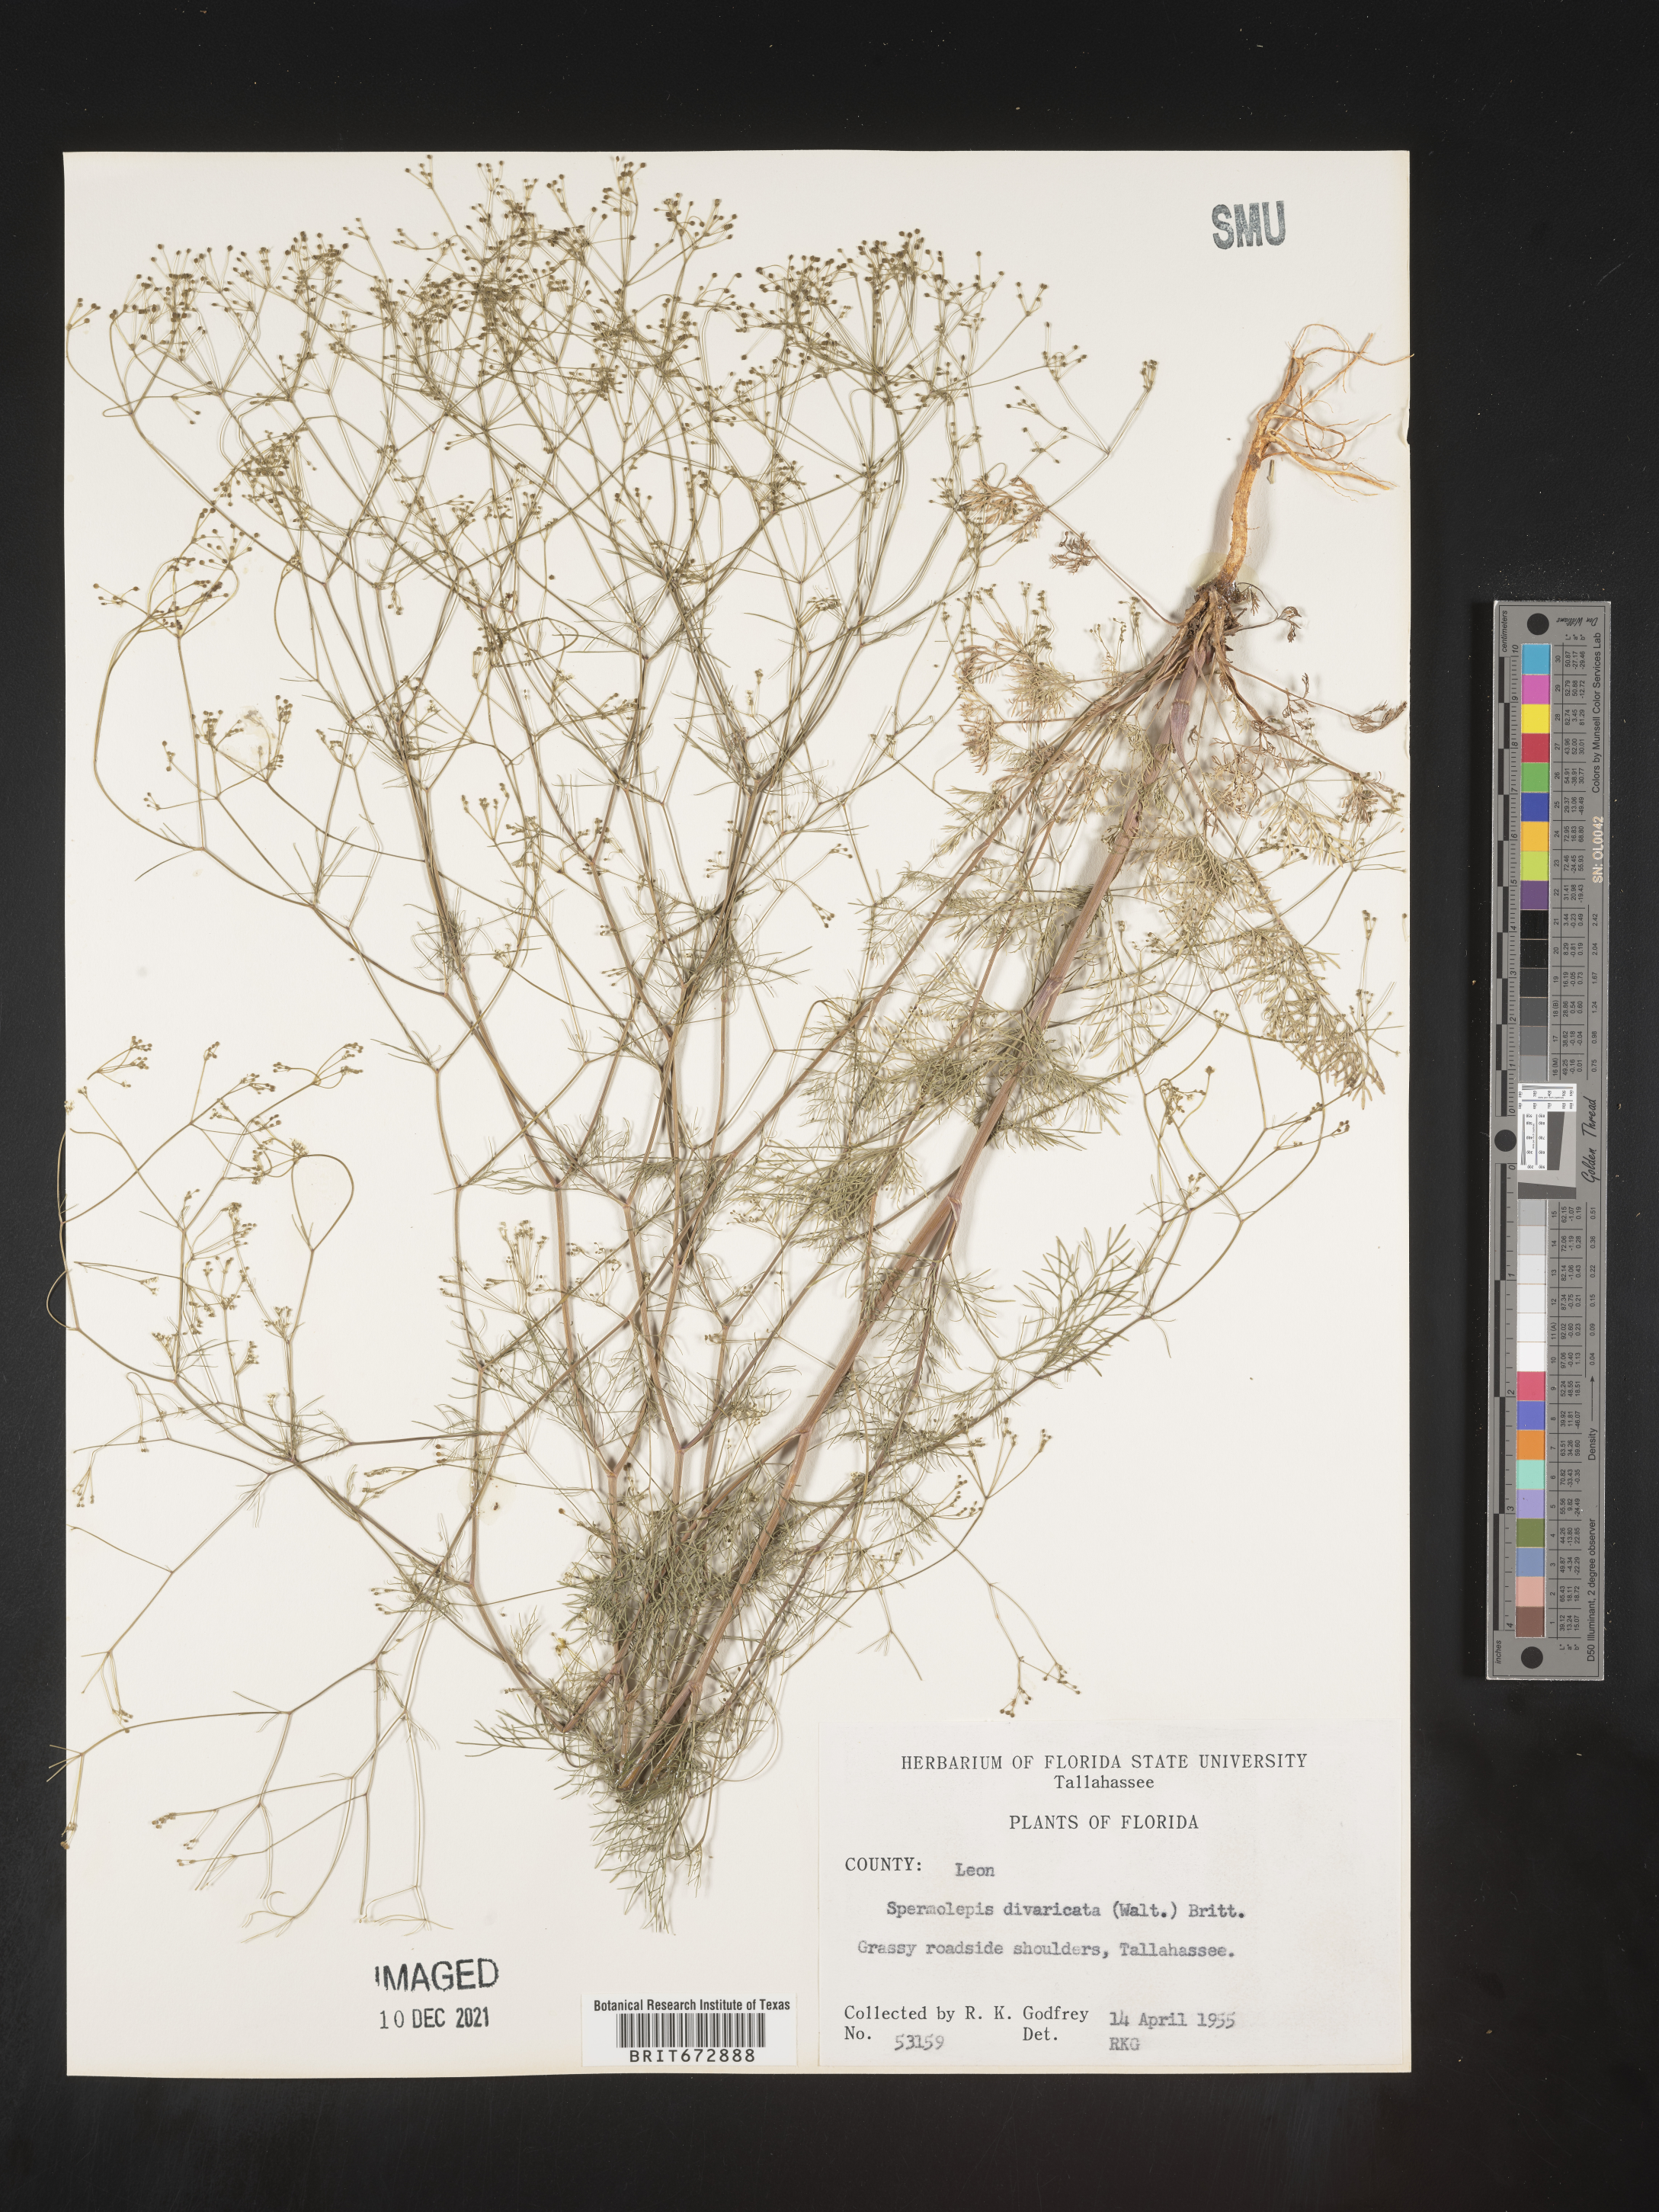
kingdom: Plantae
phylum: Tracheophyta
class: Magnoliopsida
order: Apiales
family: Apiaceae
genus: Spermolepis
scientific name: Spermolepis divaricata
